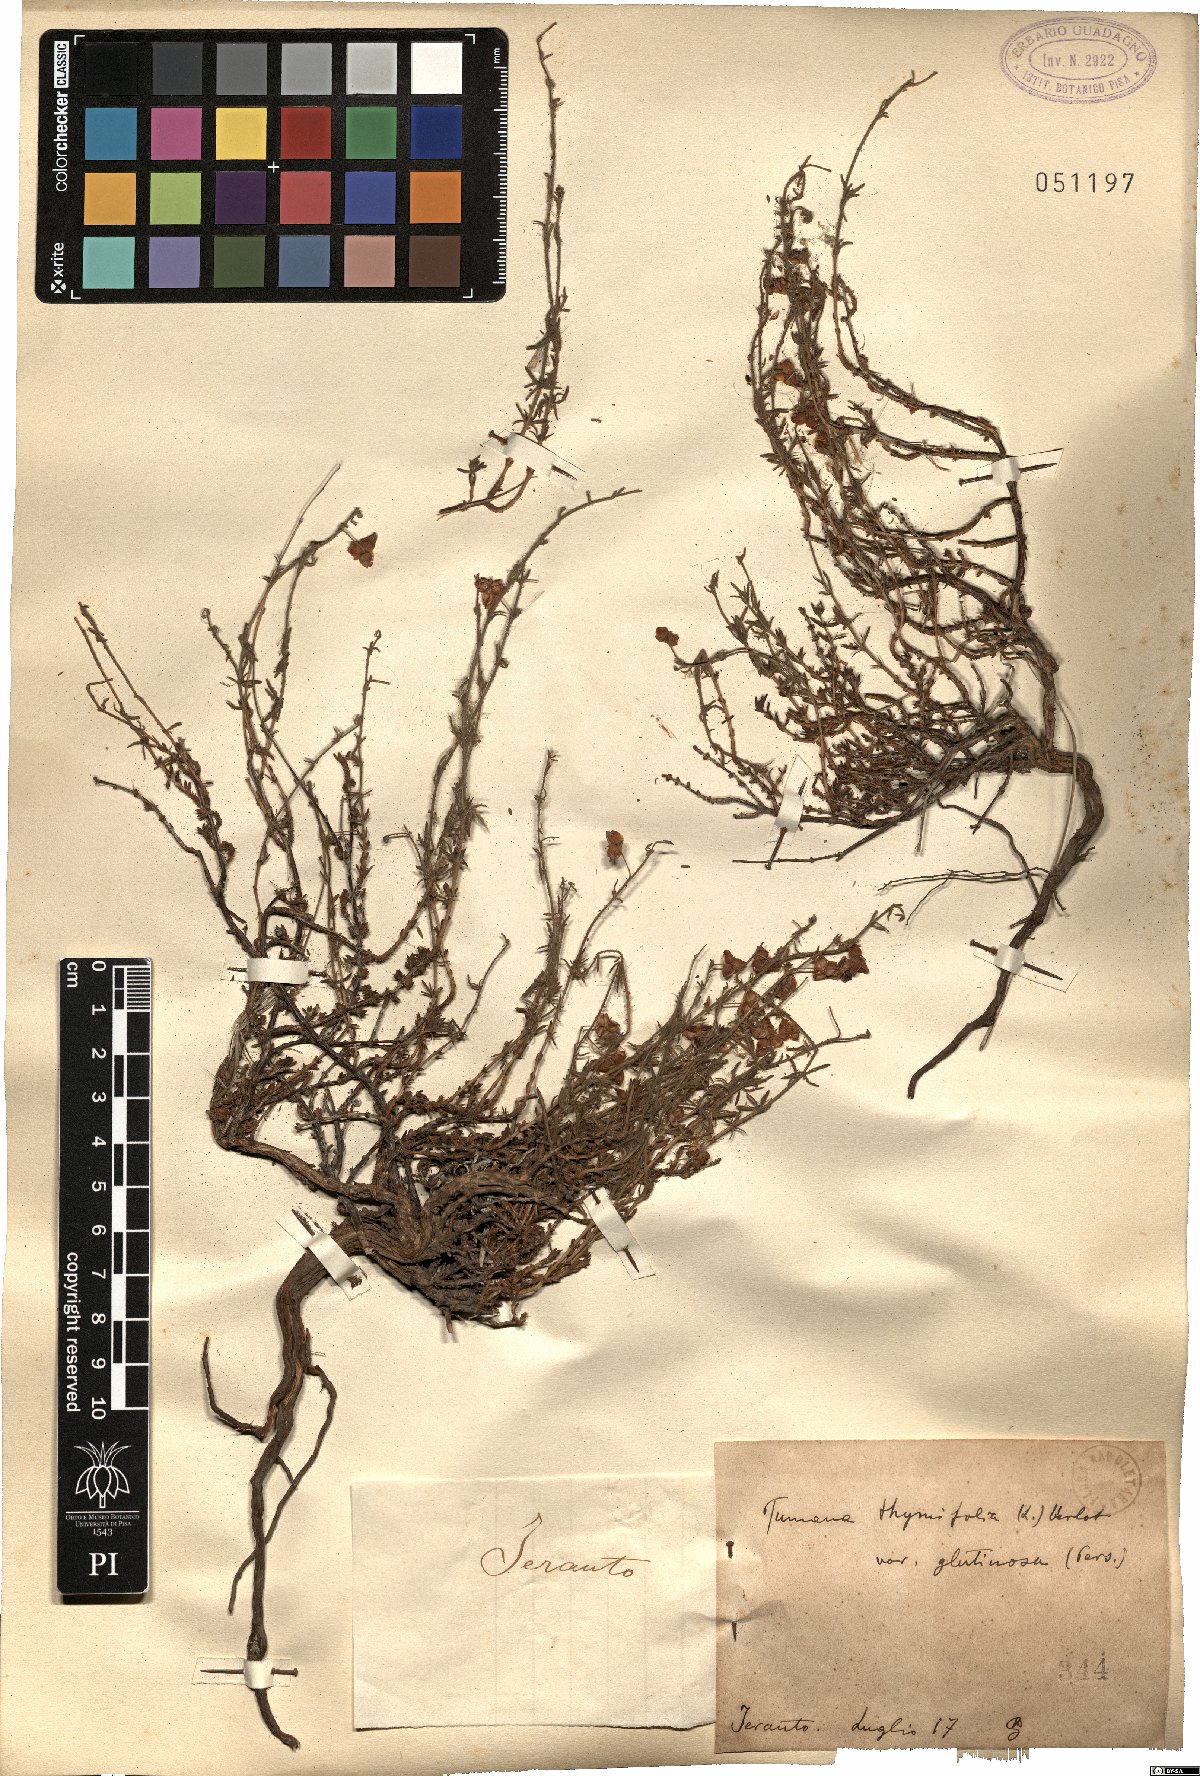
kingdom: Plantae
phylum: Tracheophyta
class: Magnoliopsida
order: Malvales
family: Cistaceae
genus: Fumana
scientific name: Fumana thymifolia
